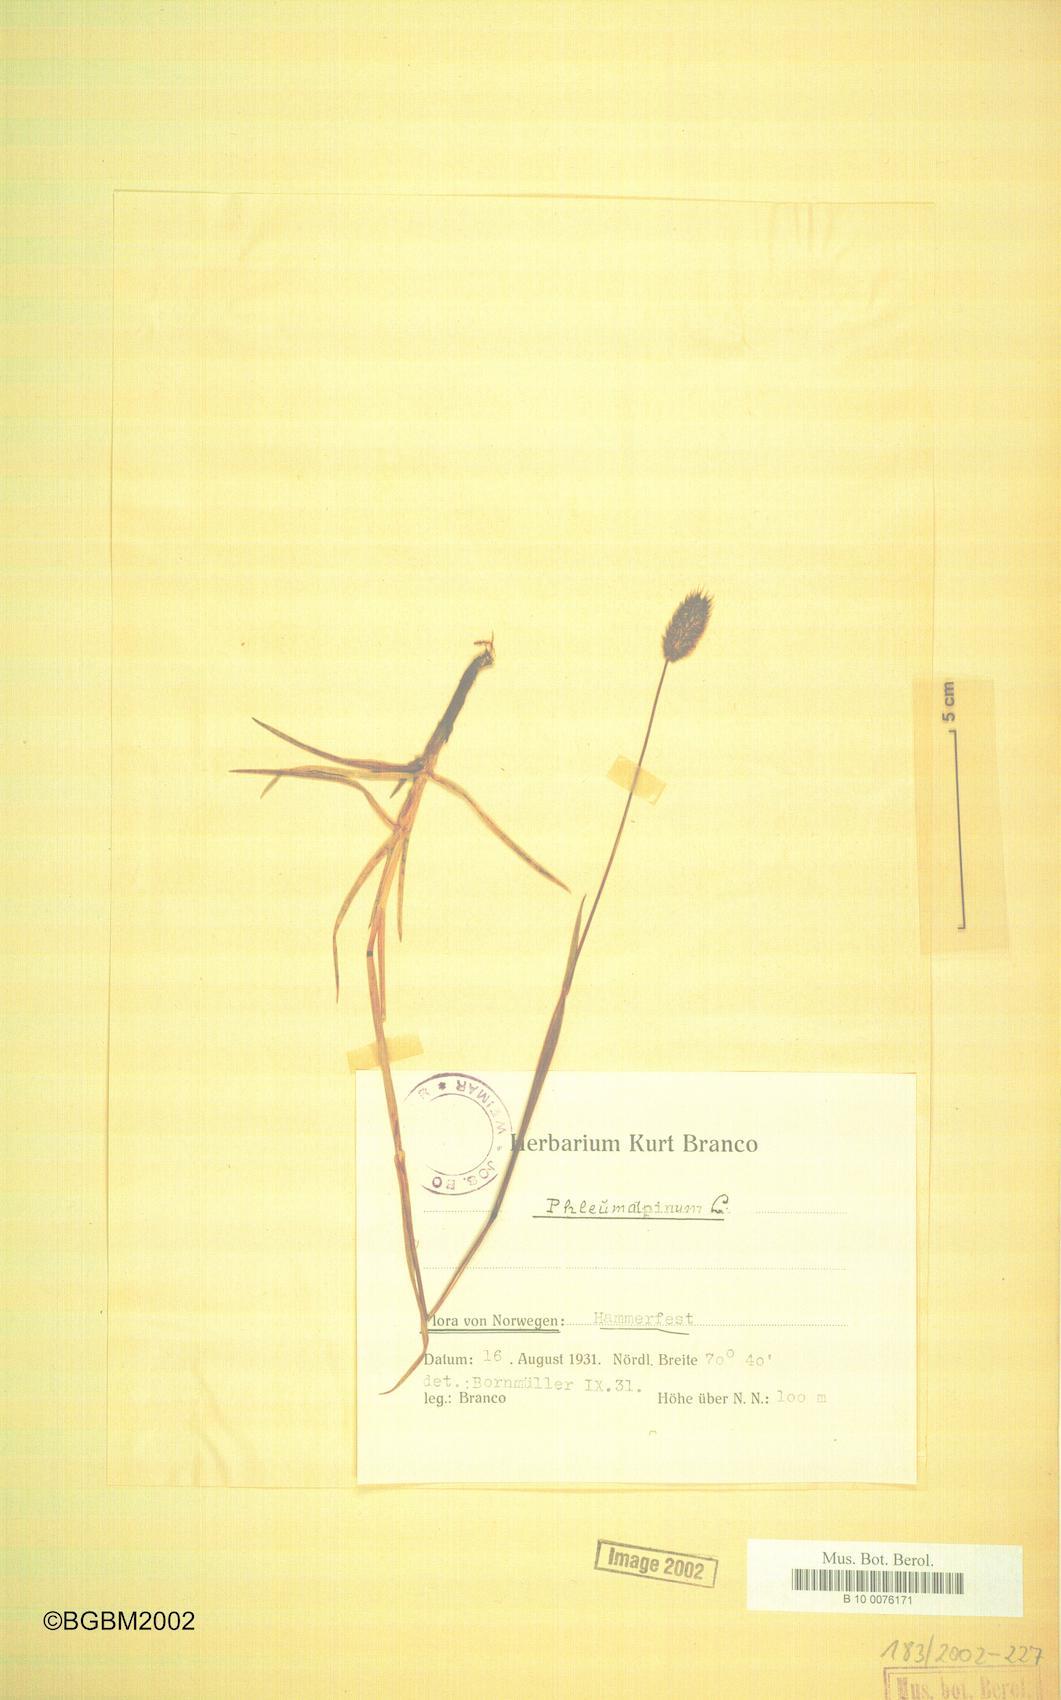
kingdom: Plantae
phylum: Tracheophyta
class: Liliopsida
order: Poales
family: Poaceae
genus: Phleum
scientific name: Phleum alpinum
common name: Alpine cat's-tail
